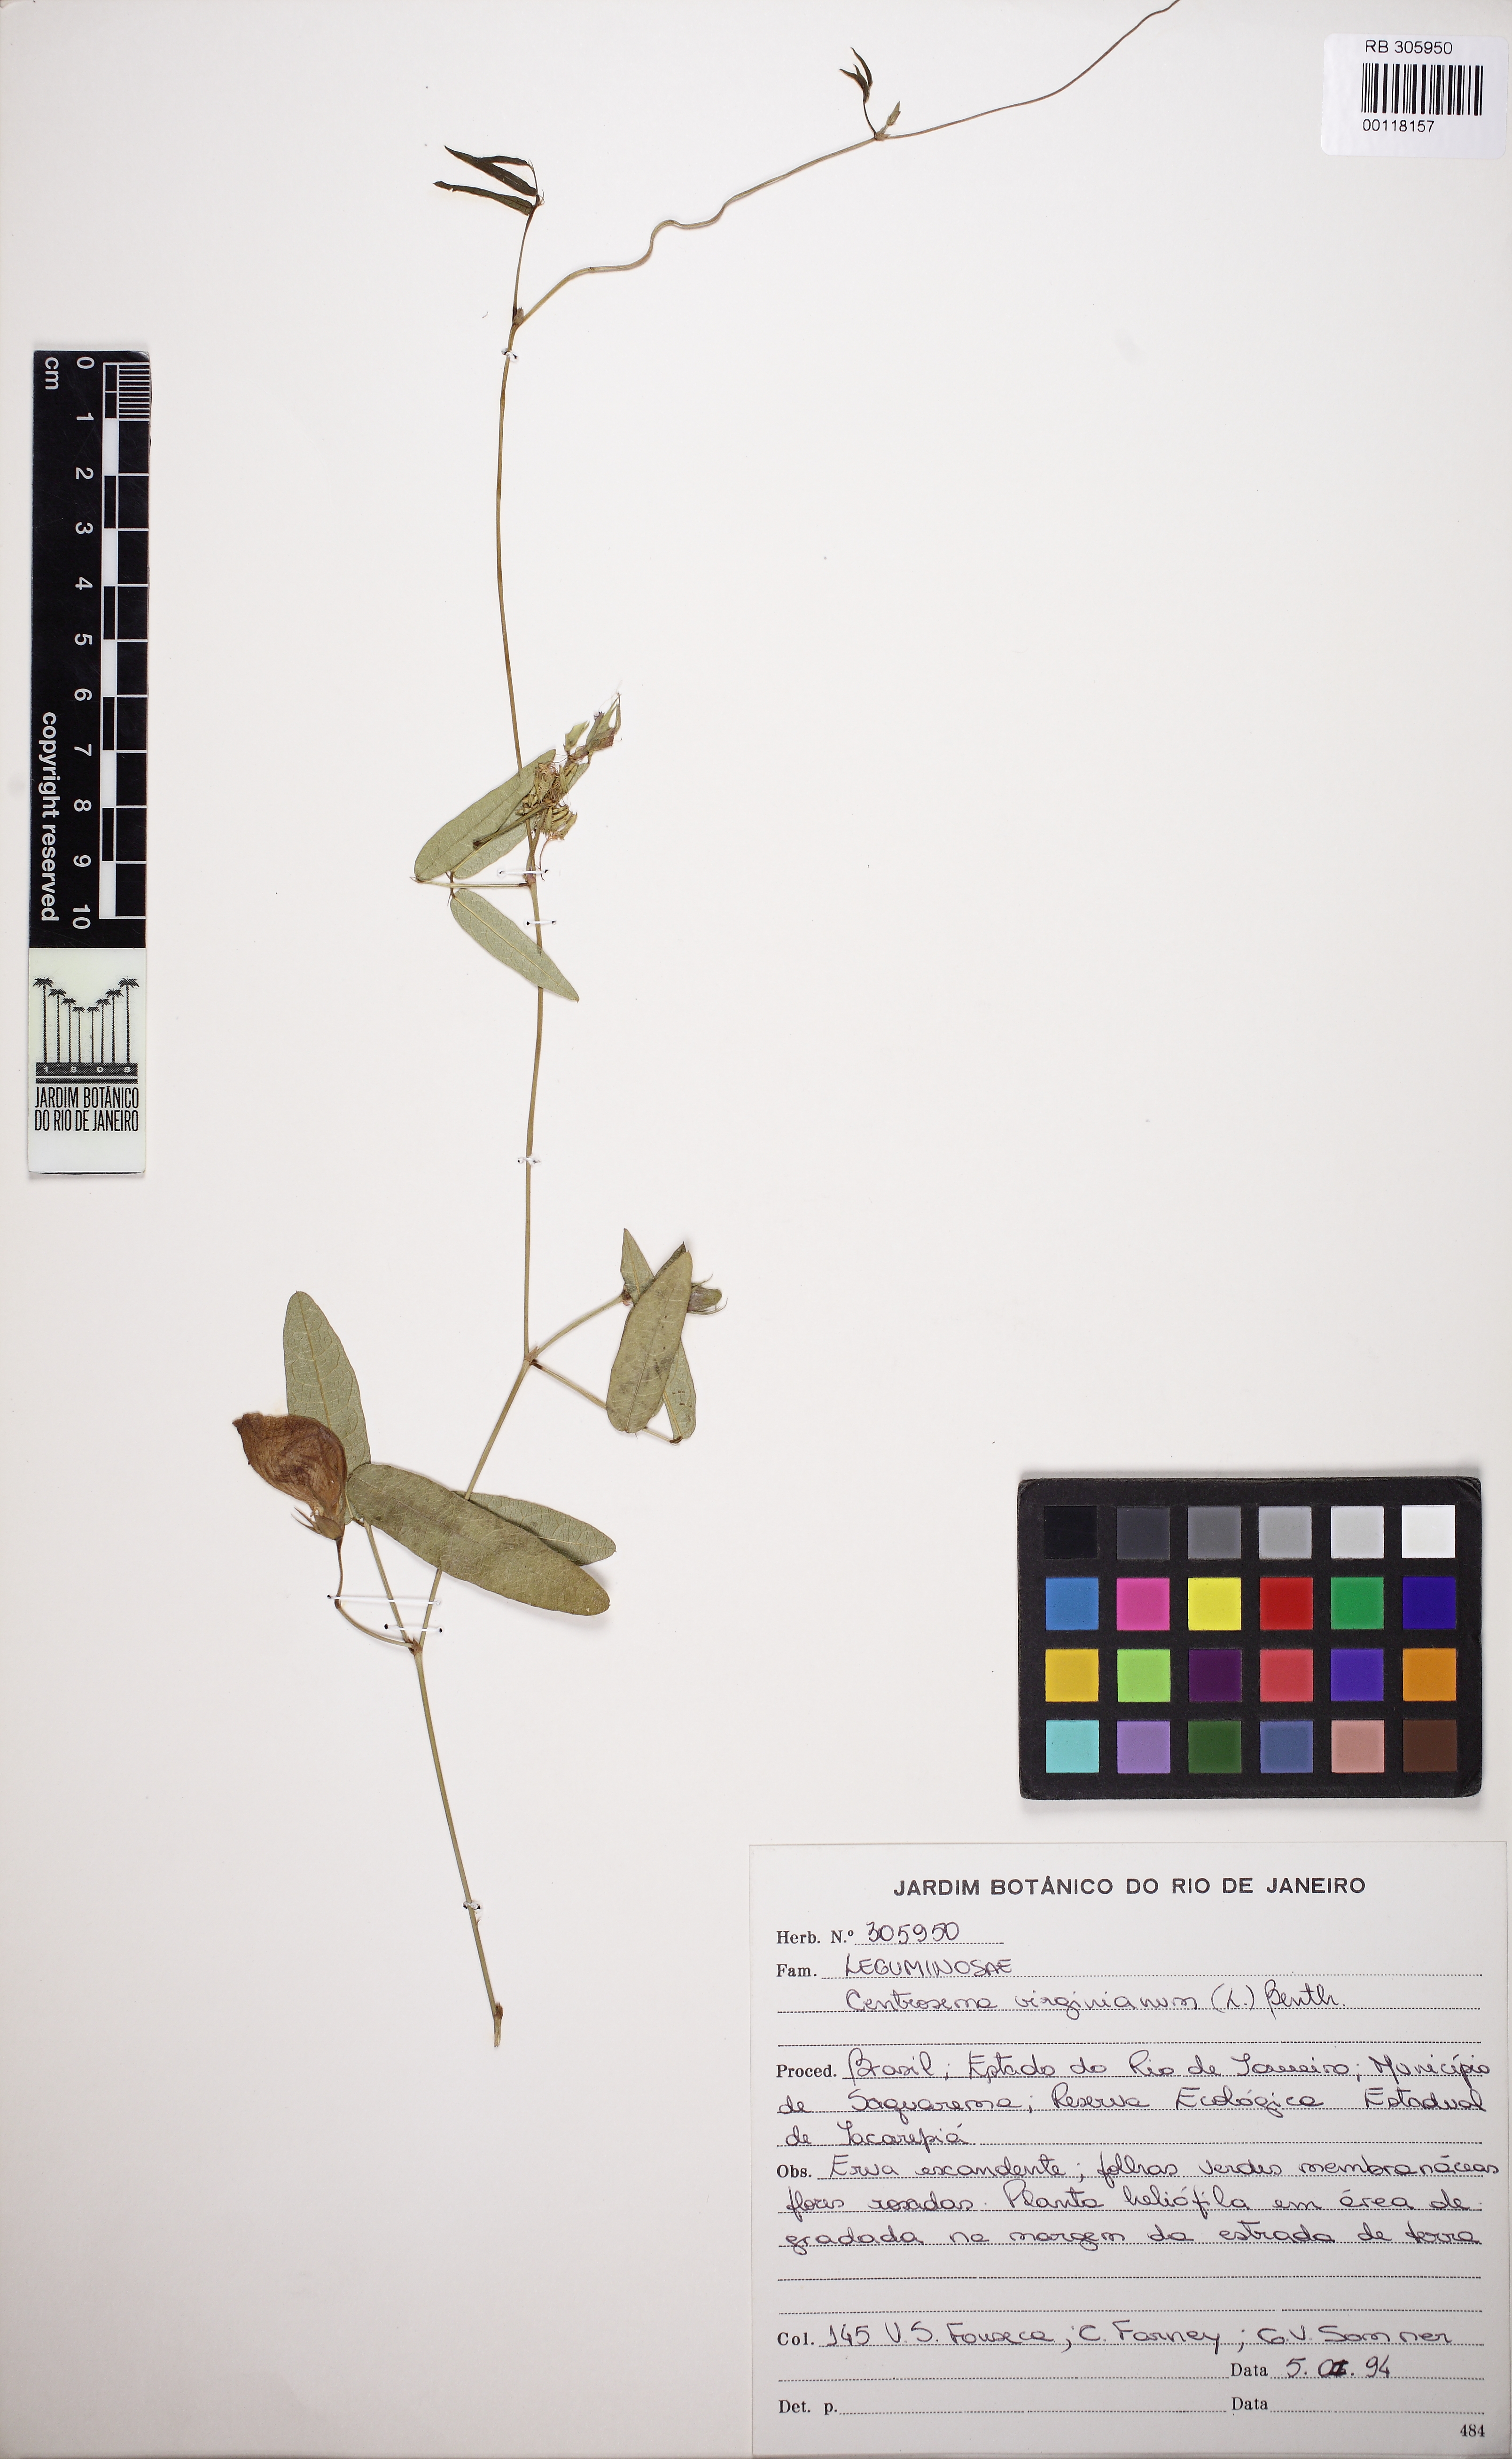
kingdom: Plantae
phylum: Tracheophyta
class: Magnoliopsida
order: Fabales
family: Fabaceae
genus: Centrosema
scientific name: Centrosema virginianum
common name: Butterfly-pea
